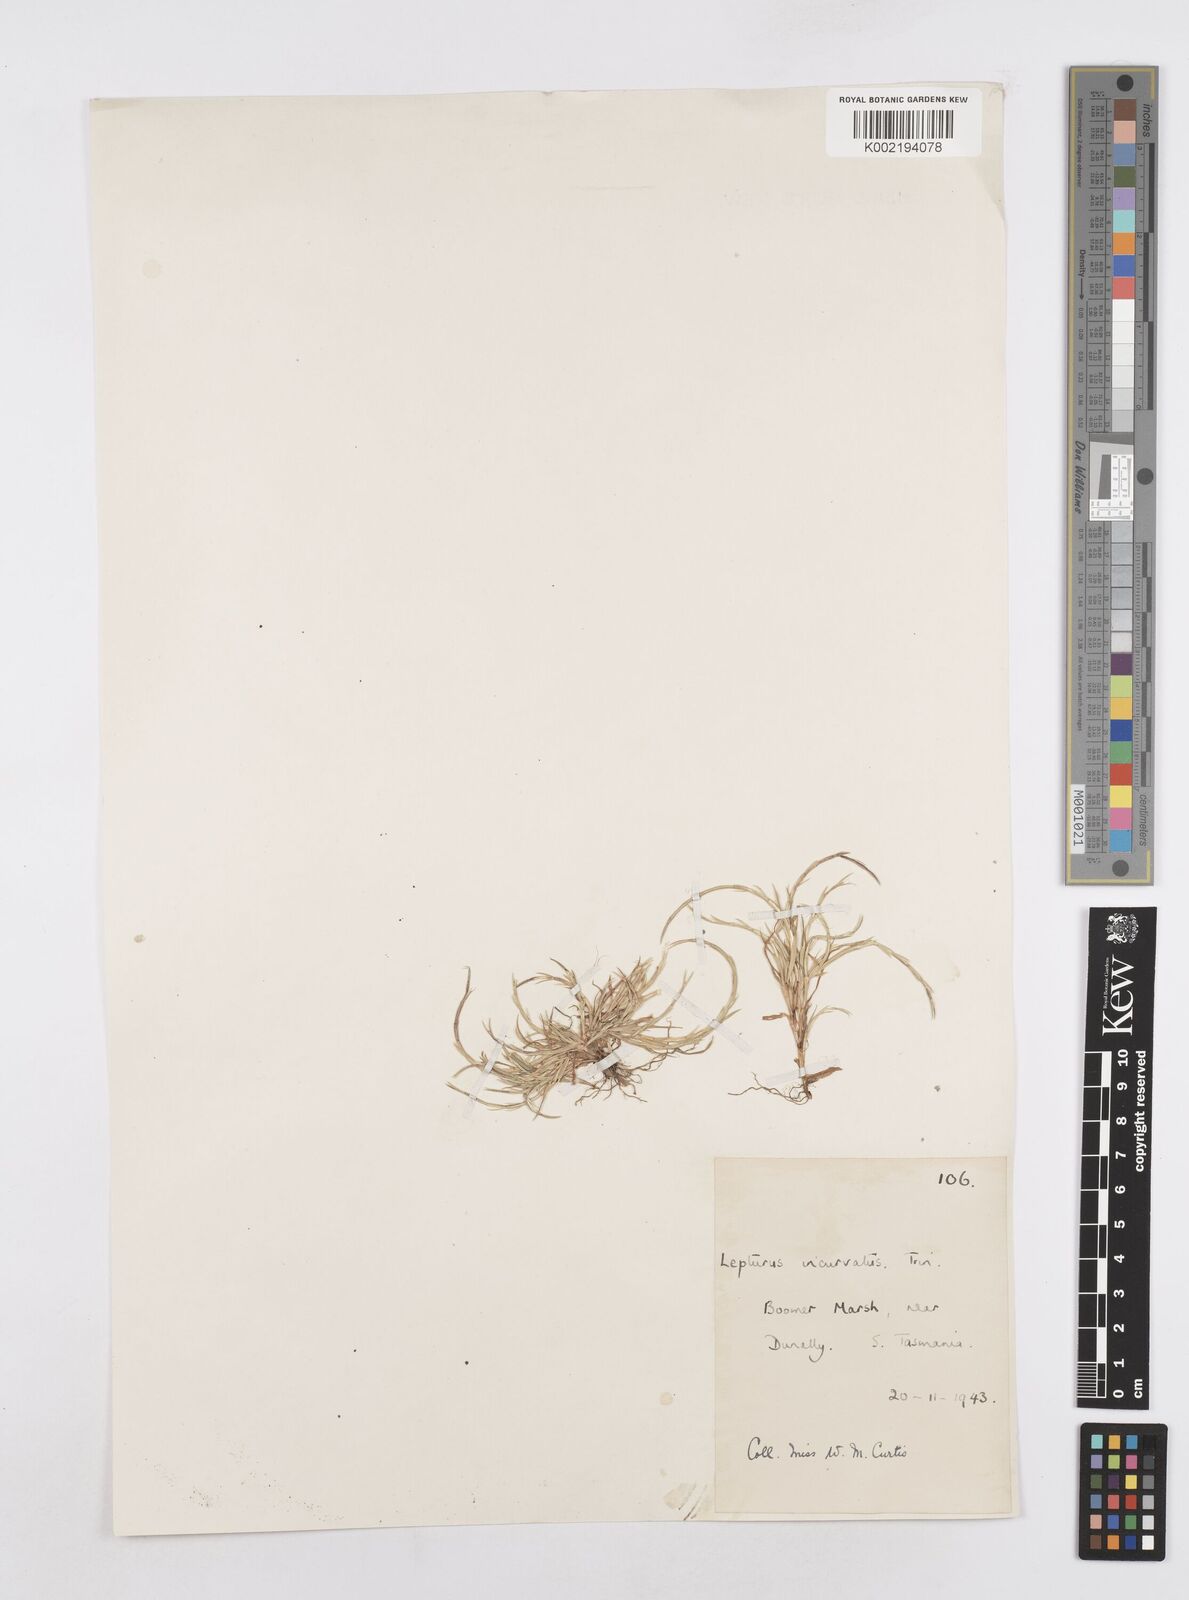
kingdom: Plantae
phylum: Tracheophyta
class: Liliopsida
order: Poales
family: Poaceae
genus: Parapholis
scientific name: Parapholis incurva
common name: Curved sicklegrass
